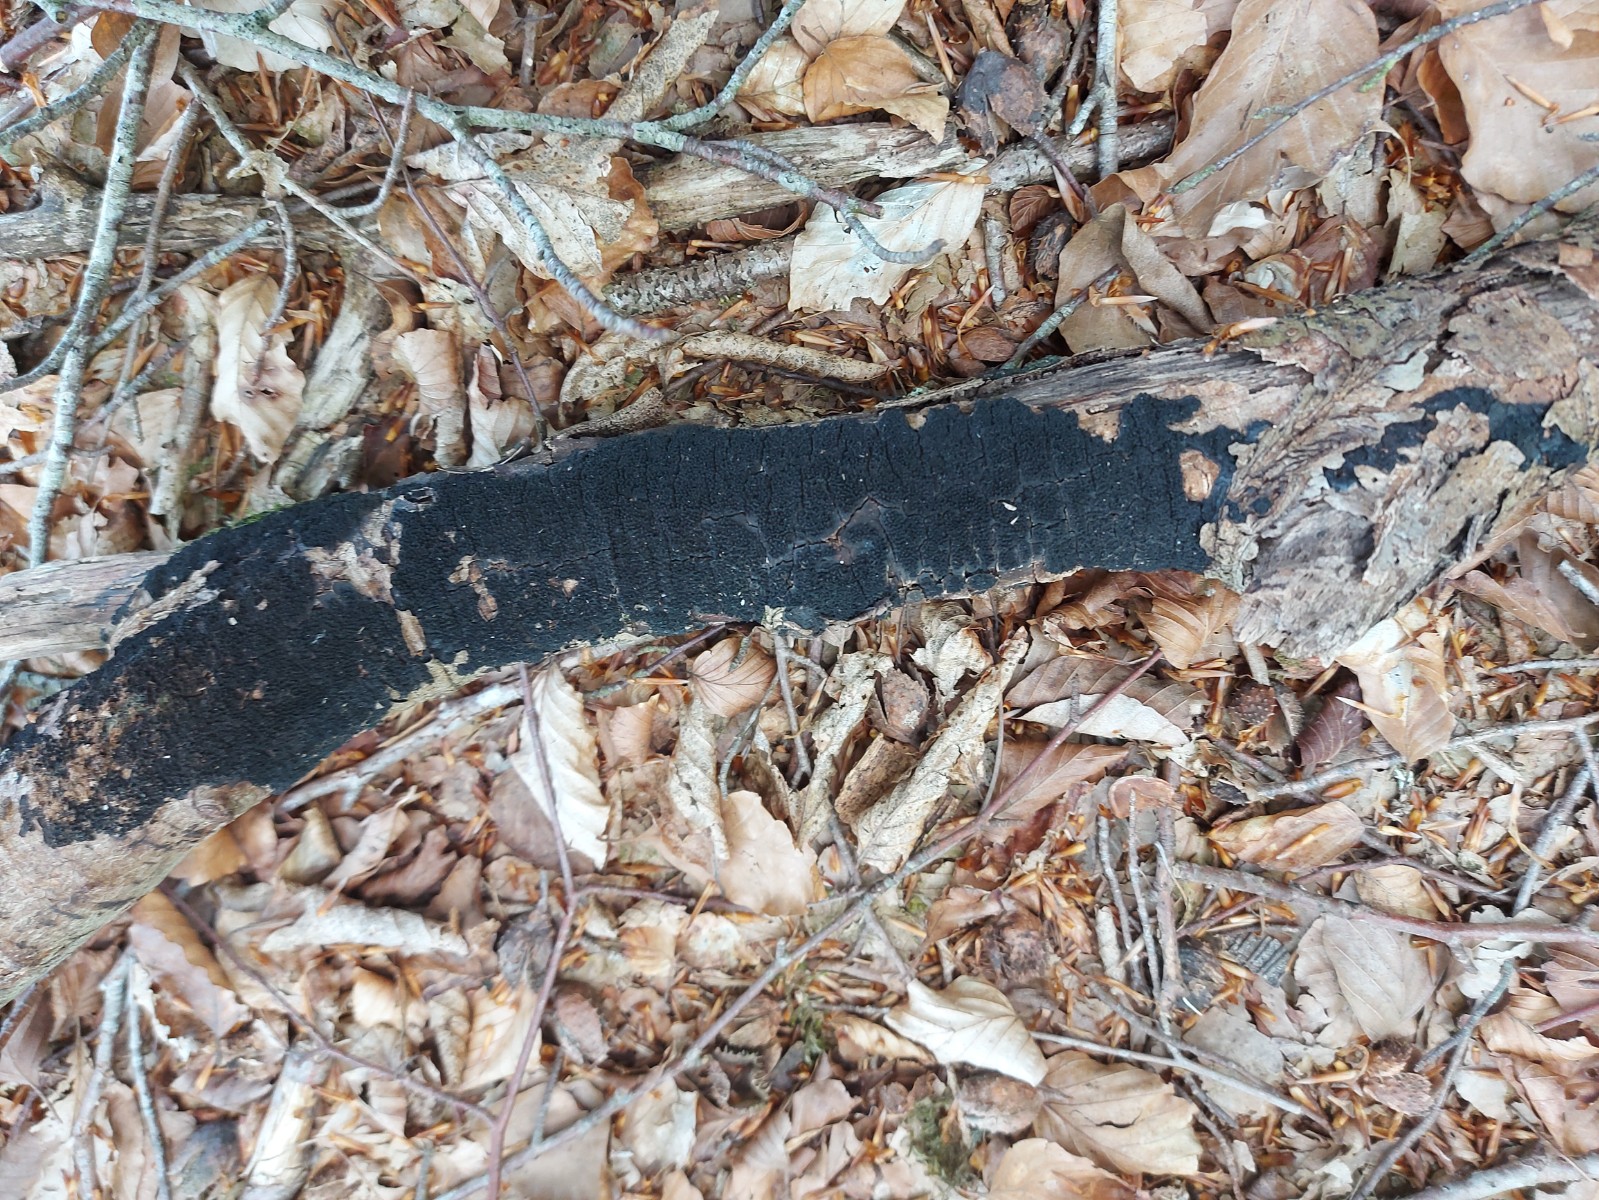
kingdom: Fungi
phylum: Ascomycota
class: Sordariomycetes
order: Xylariales
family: Diatrypaceae
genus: Eutypa
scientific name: Eutypa spinosa
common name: grov kulskorpe
